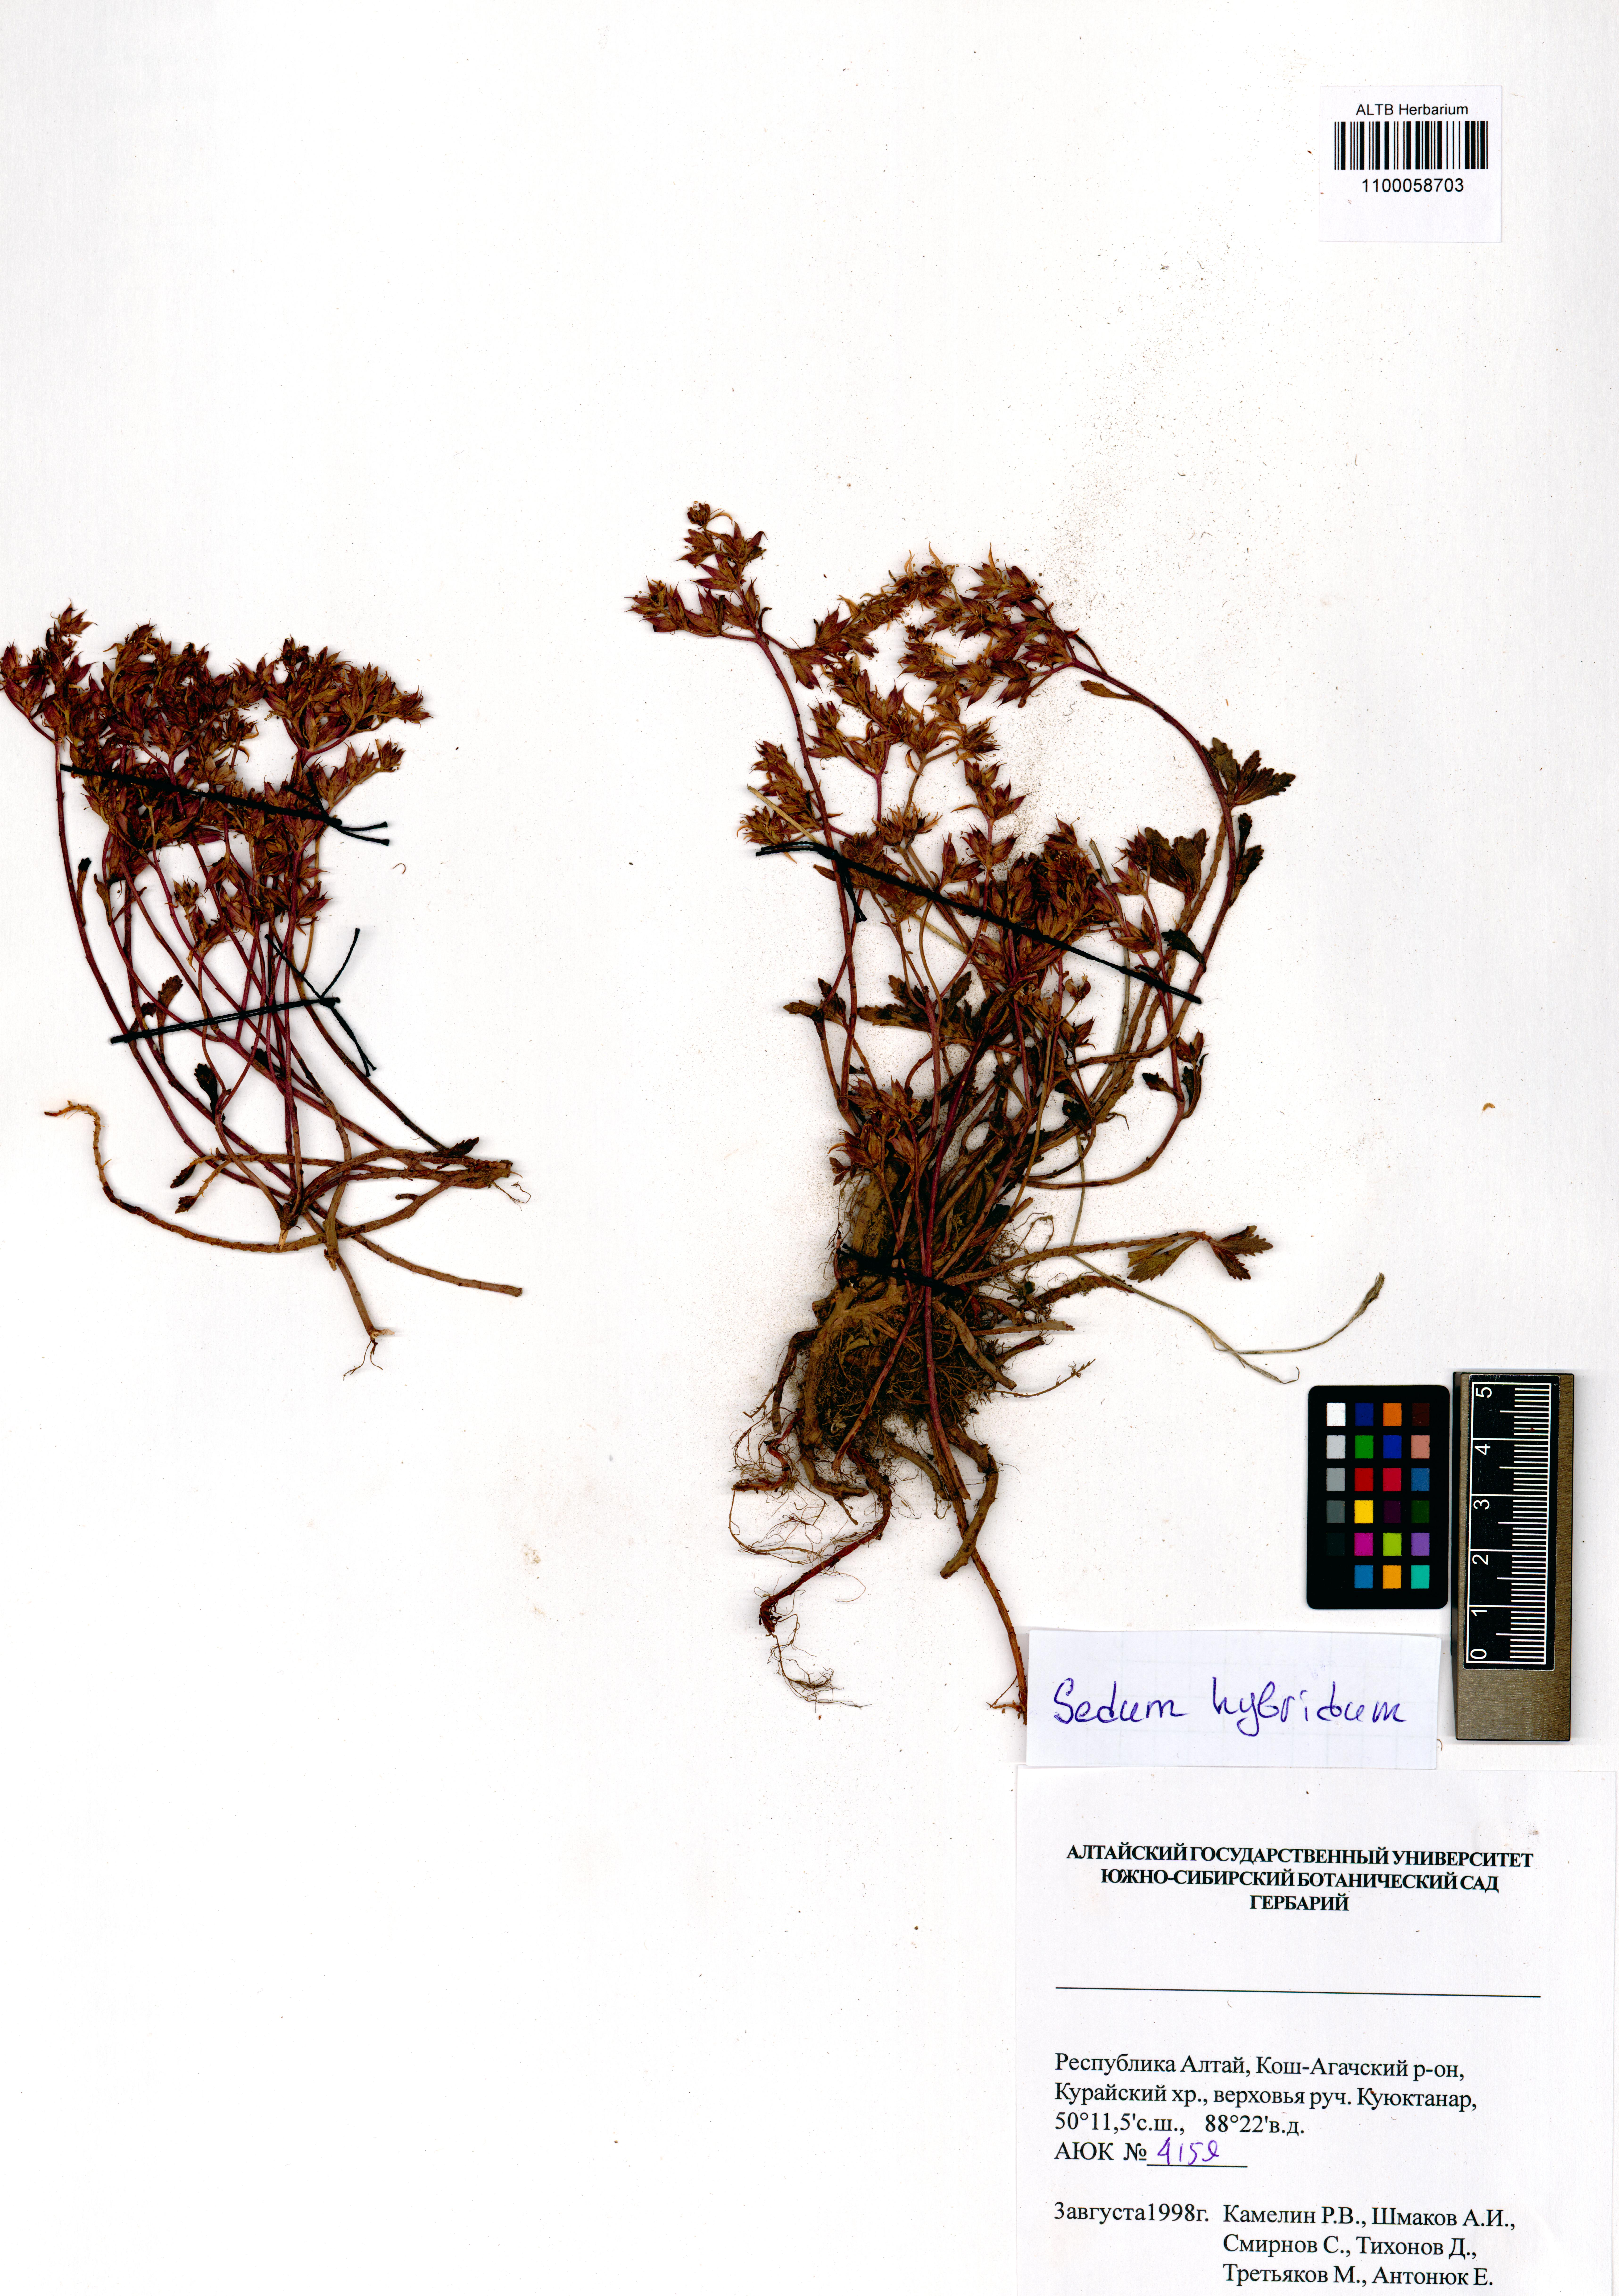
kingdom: Plantae
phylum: Tracheophyta
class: Magnoliopsida
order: Saxifragales
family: Crassulaceae
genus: Phedimus
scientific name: Phedimus hybridus
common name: Hybrid stonecrop
